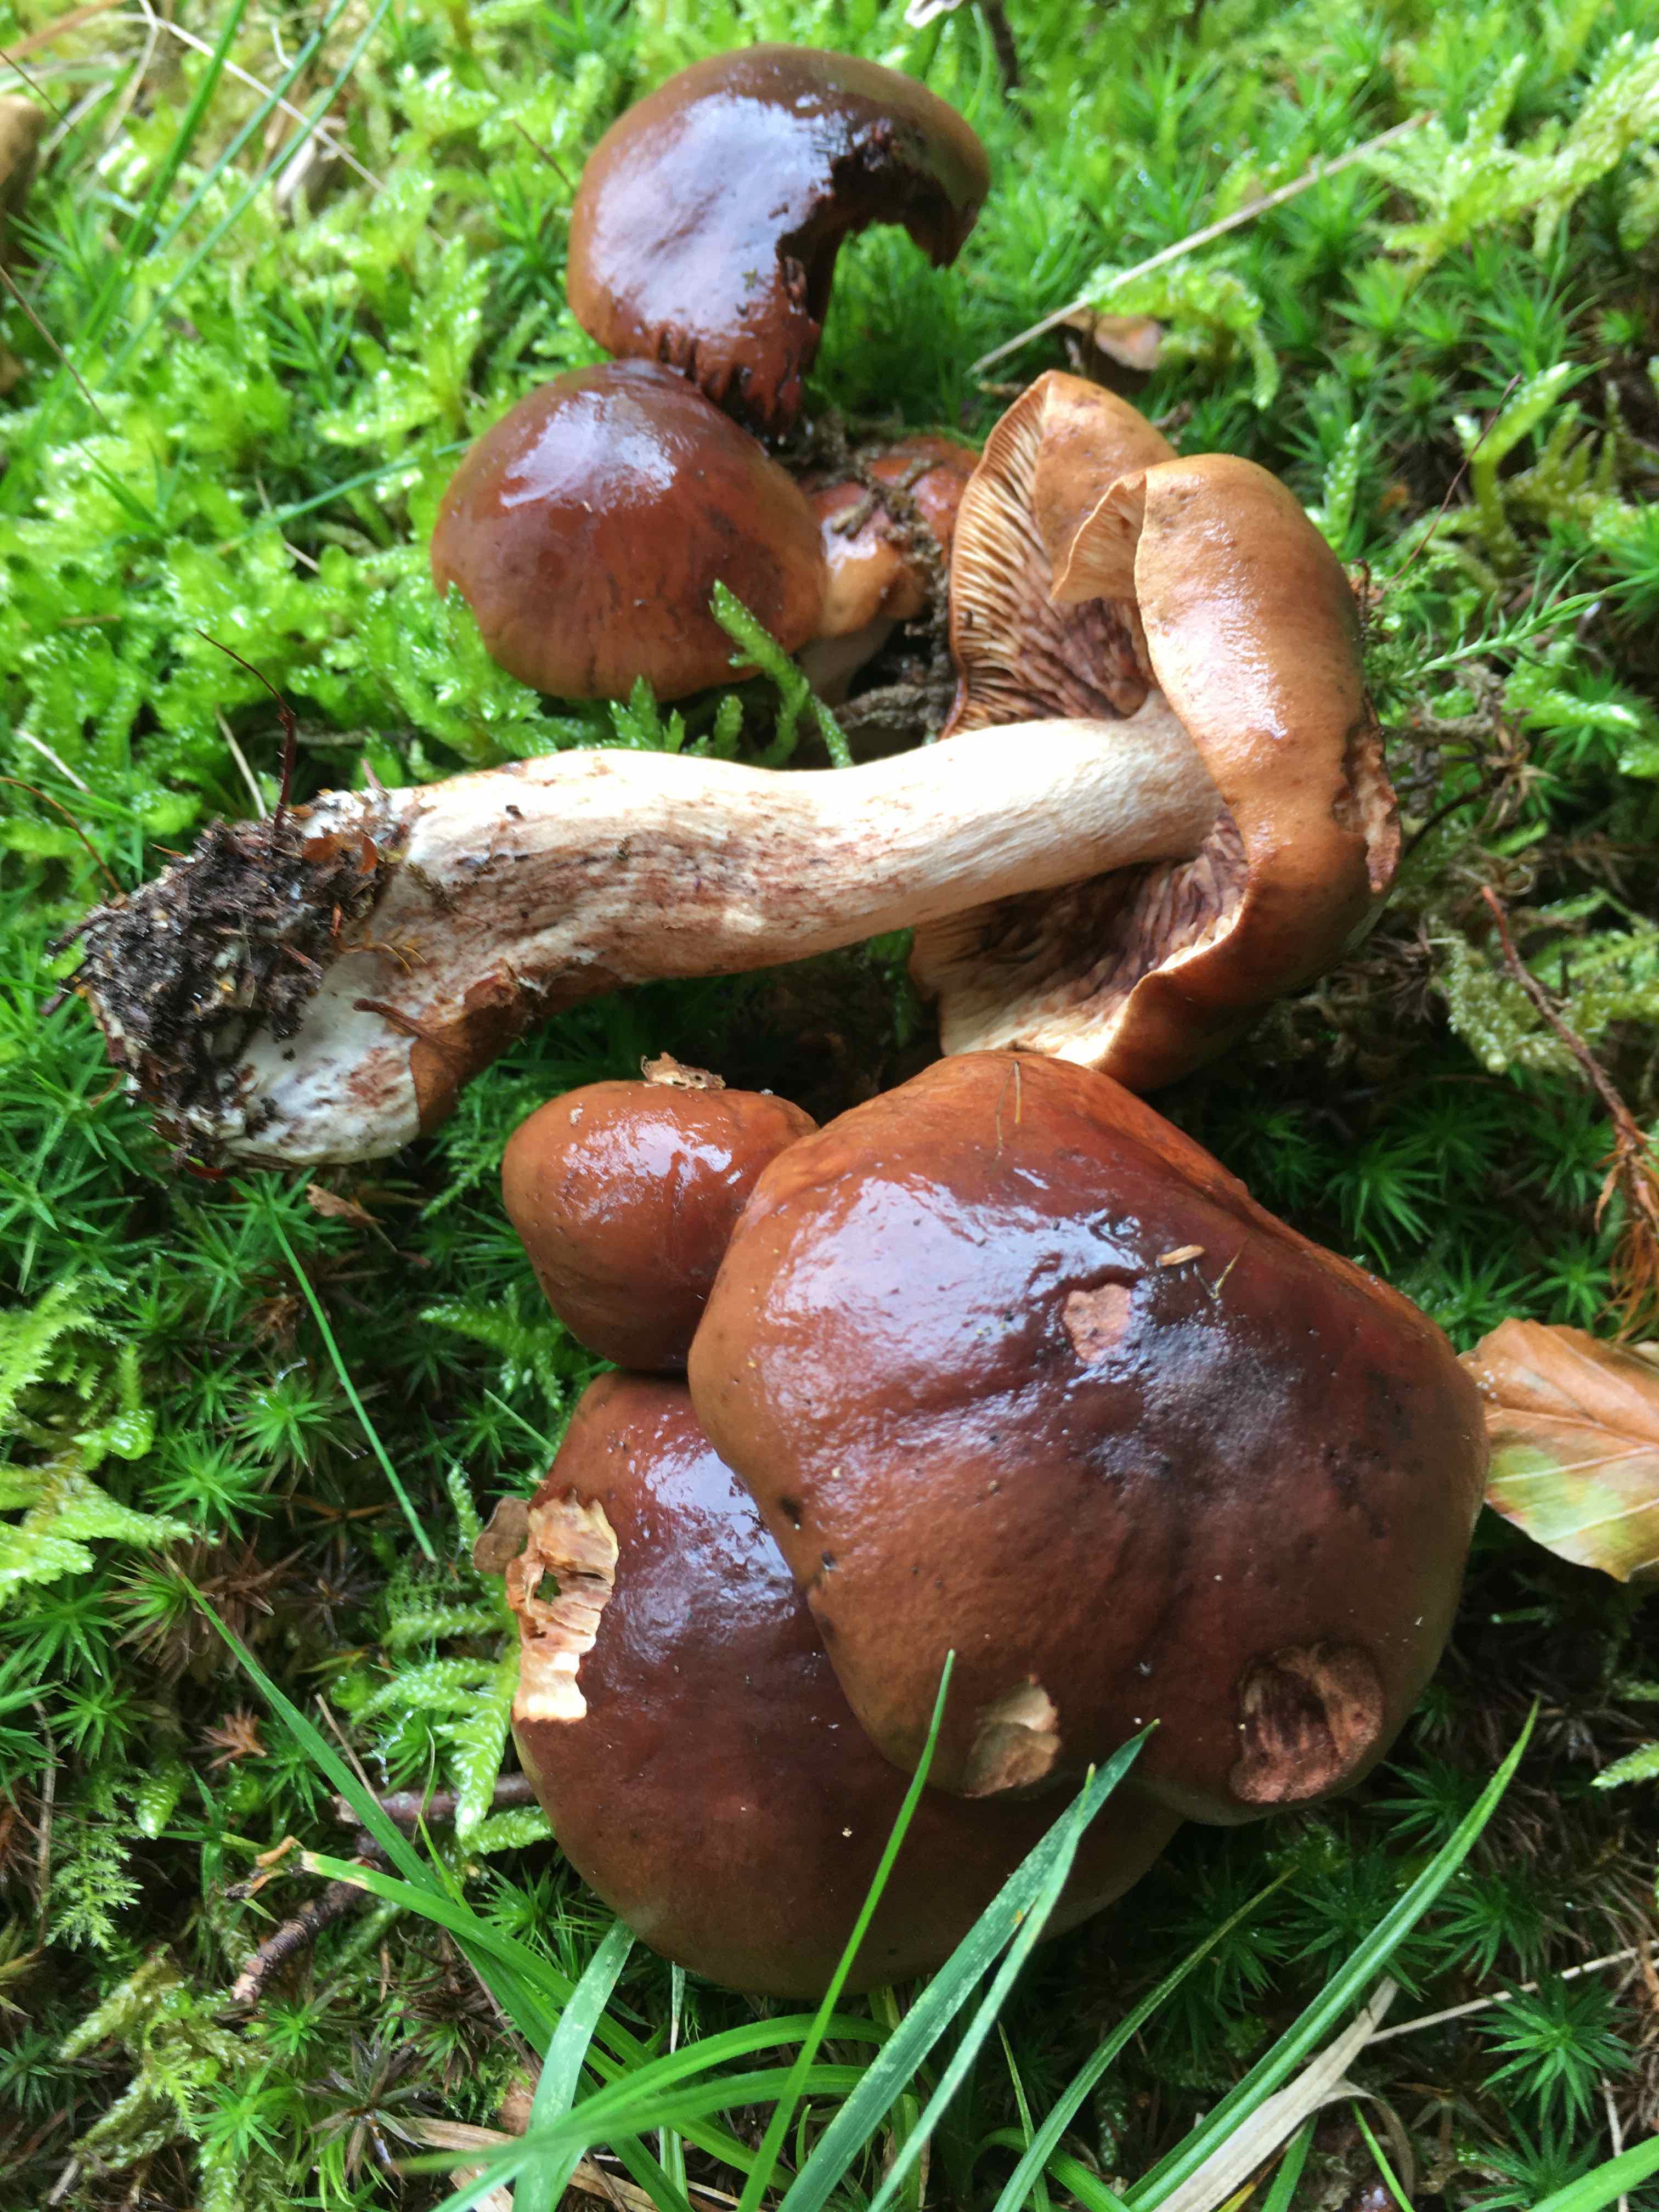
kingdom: Fungi
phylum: Basidiomycota
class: Agaricomycetes
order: Agaricales
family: Tricholomataceae
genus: Tricholoma
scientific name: Tricholoma ustale
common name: sveden ridderhat
